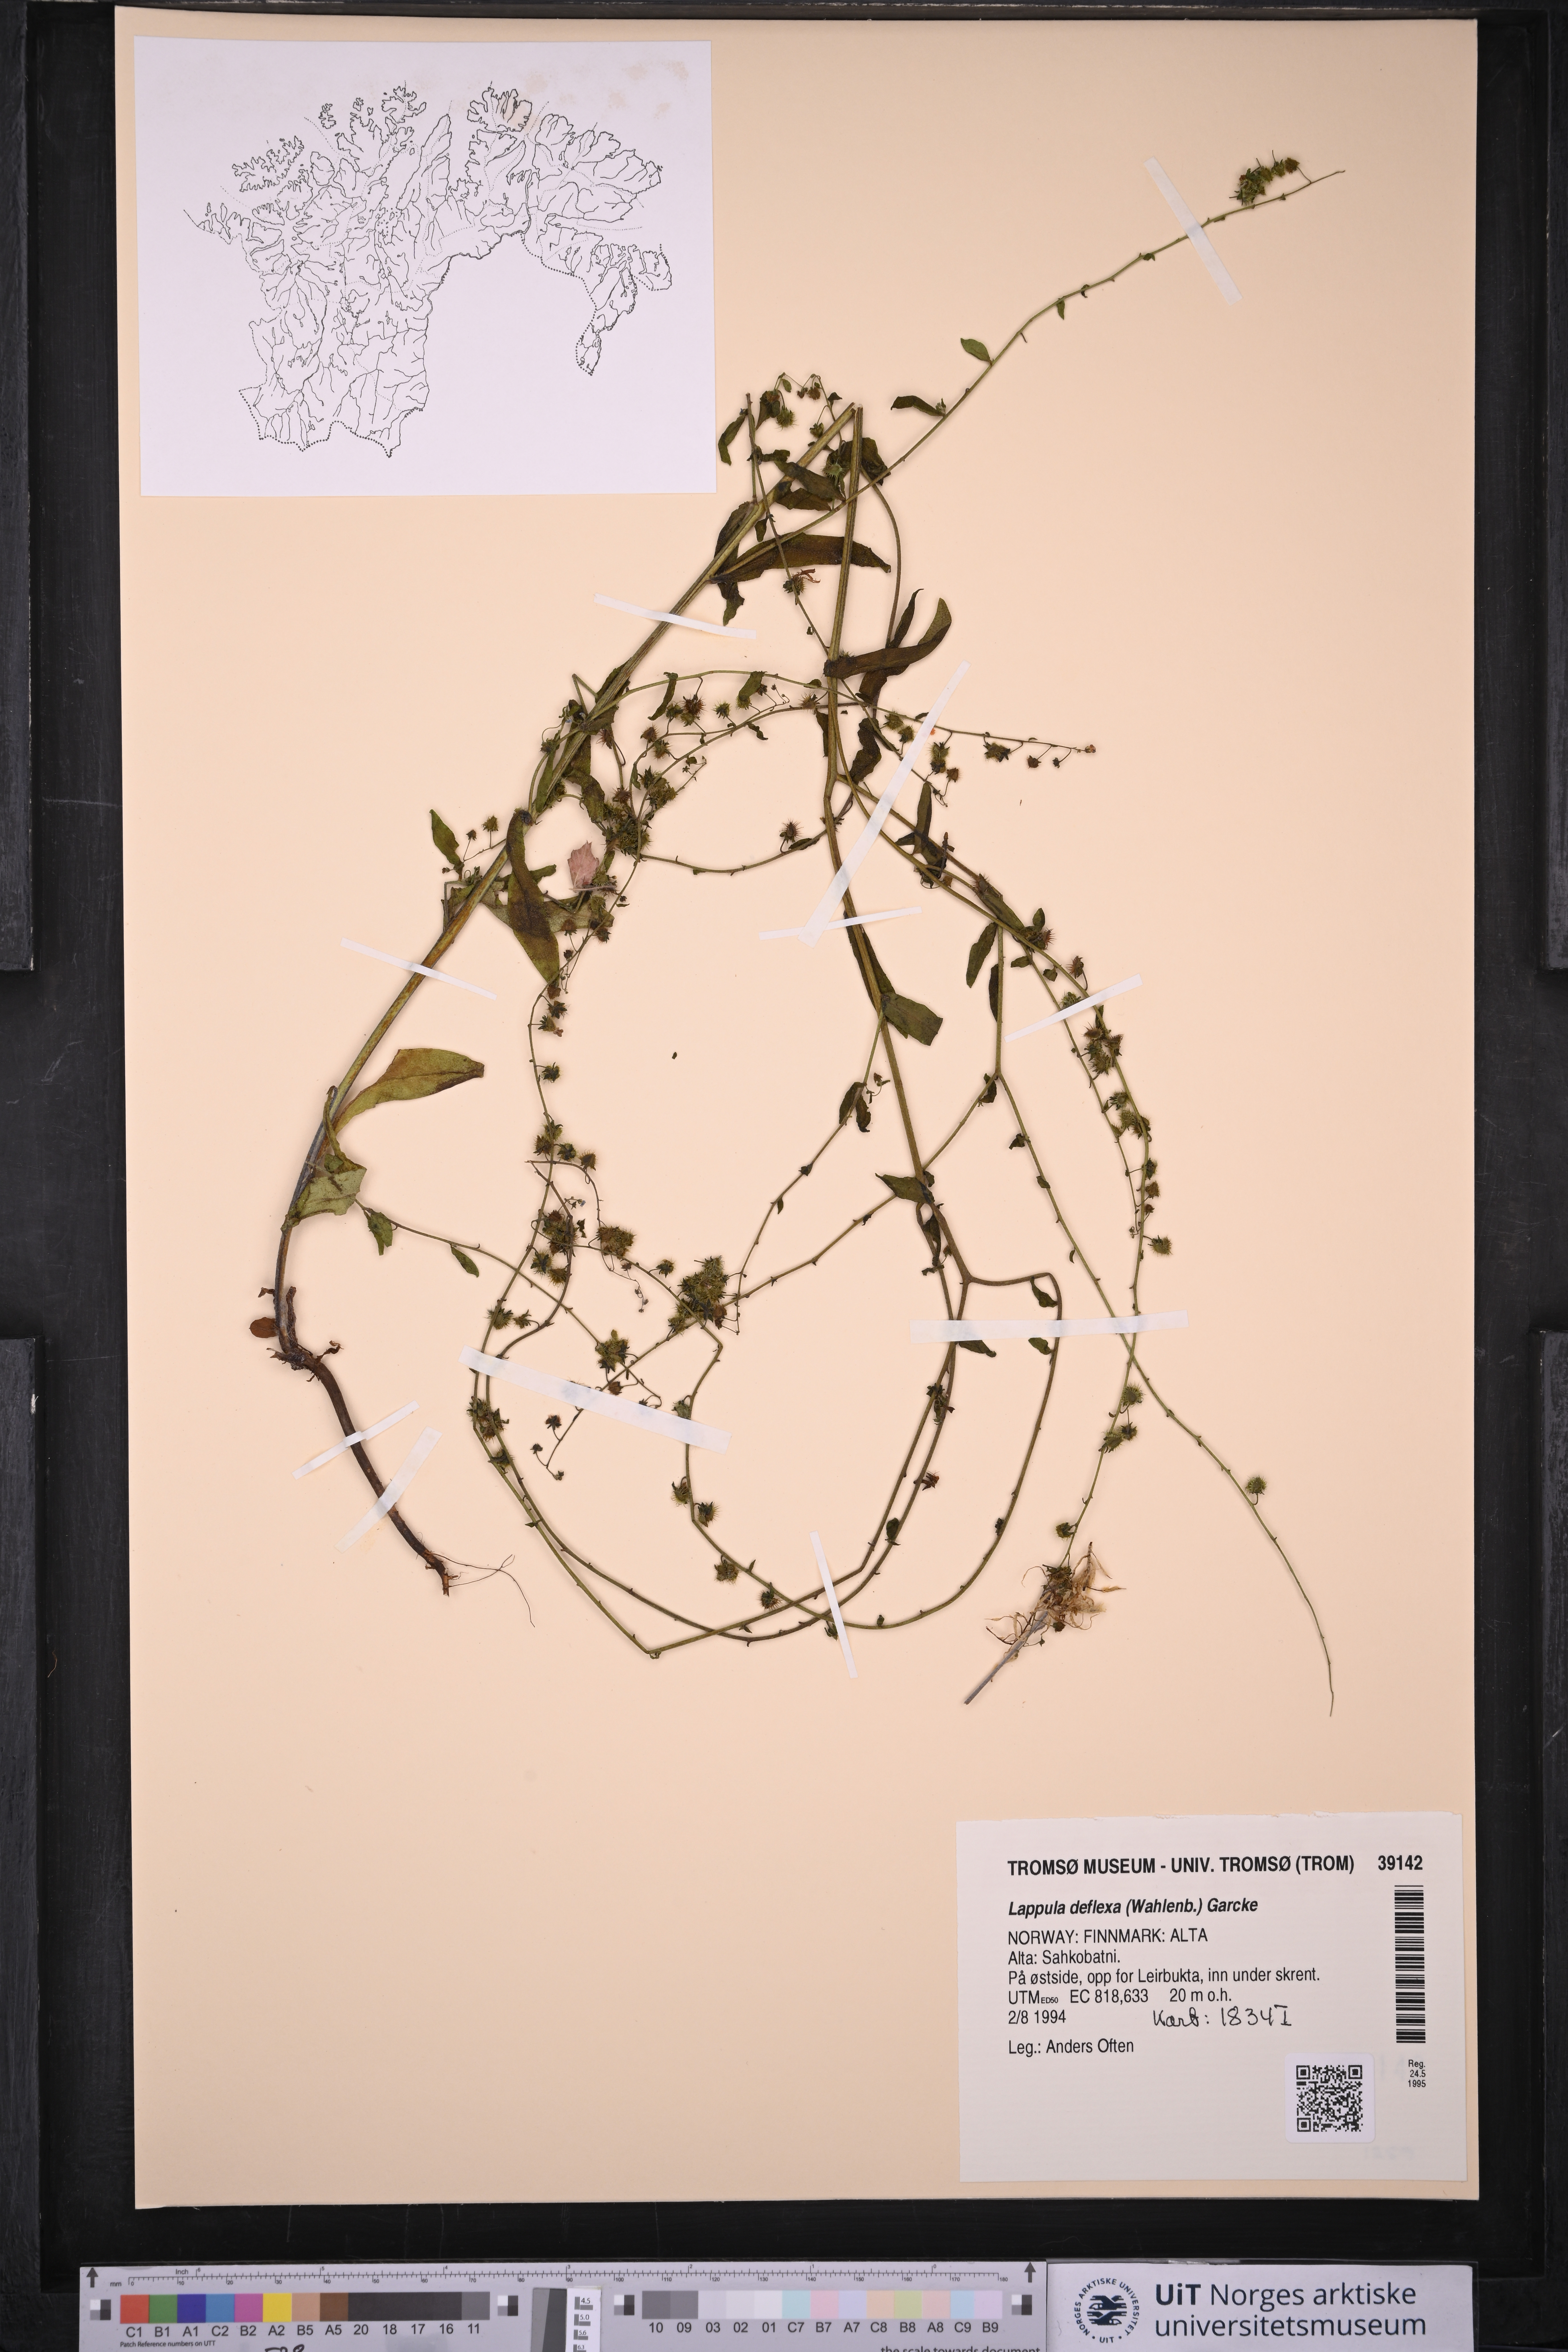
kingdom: Plantae
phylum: Tracheophyta
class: Magnoliopsida
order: Boraginales
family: Boraginaceae
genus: Hackelia
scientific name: Hackelia deflexa
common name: Nodding stickseed
